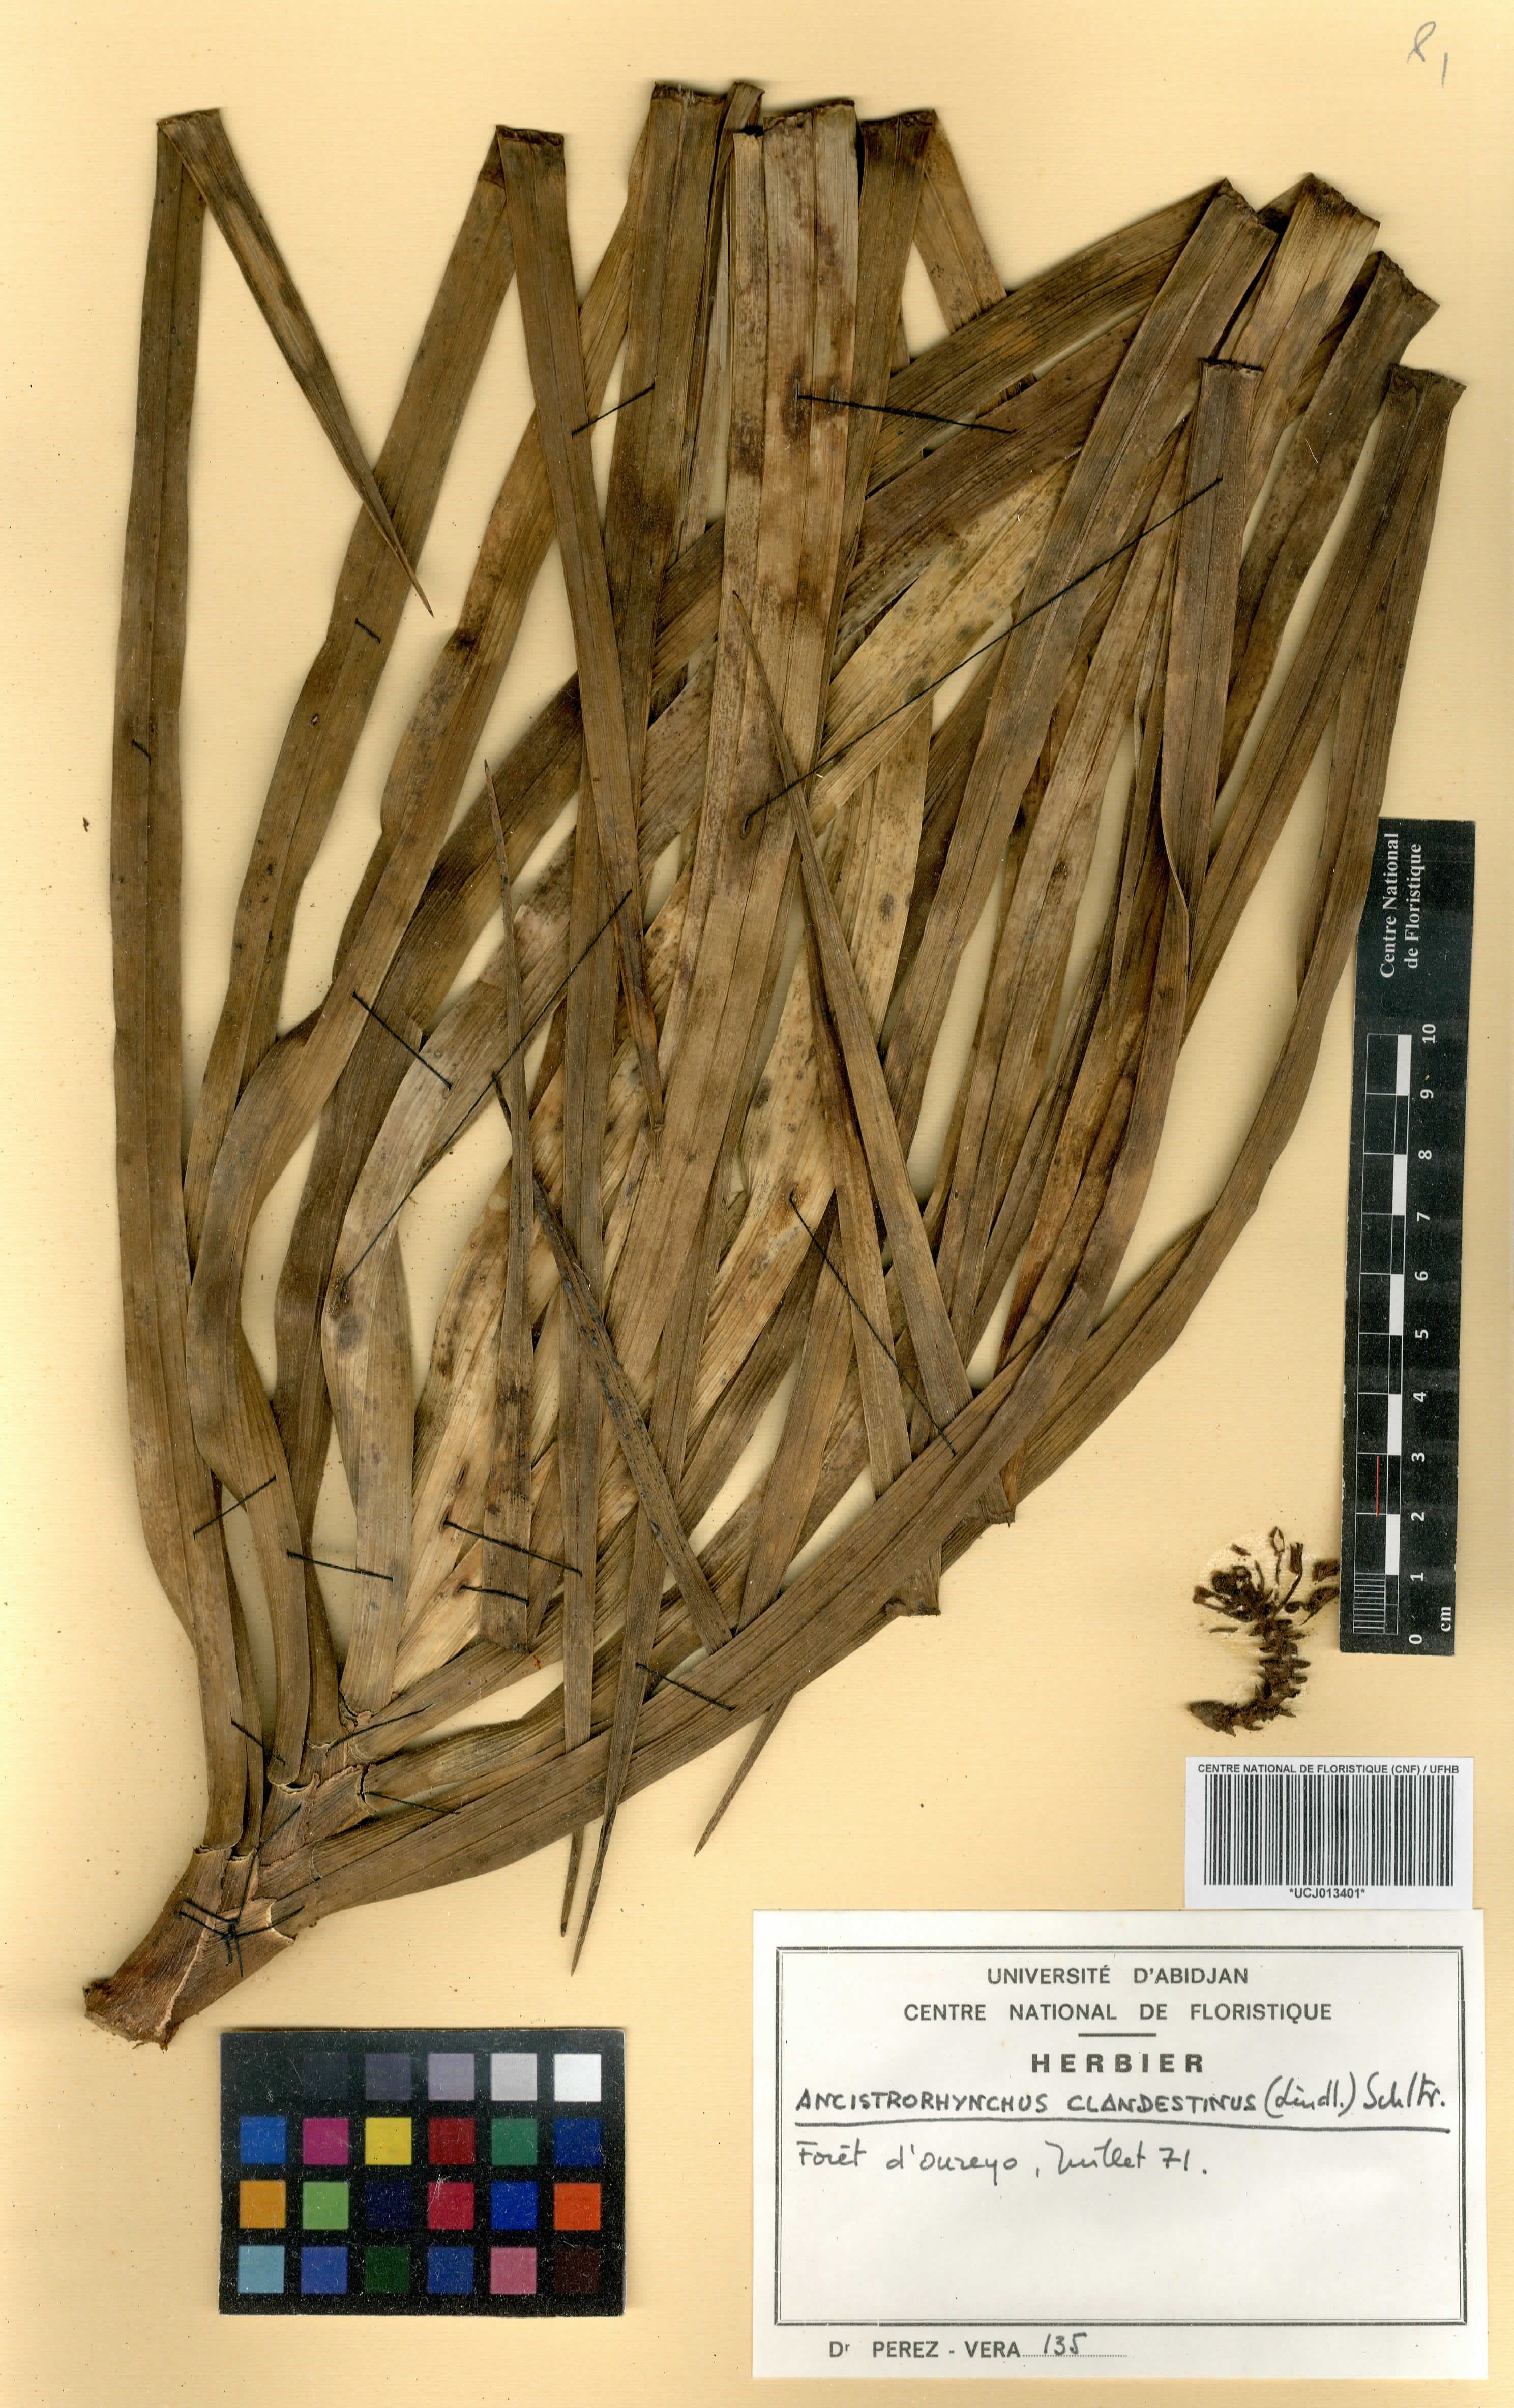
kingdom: Plantae
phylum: Tracheophyta
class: Liliopsida
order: Asparagales
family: Orchidaceae
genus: Ancistrorhynchus
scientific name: Ancistrorhynchus clandestinus
